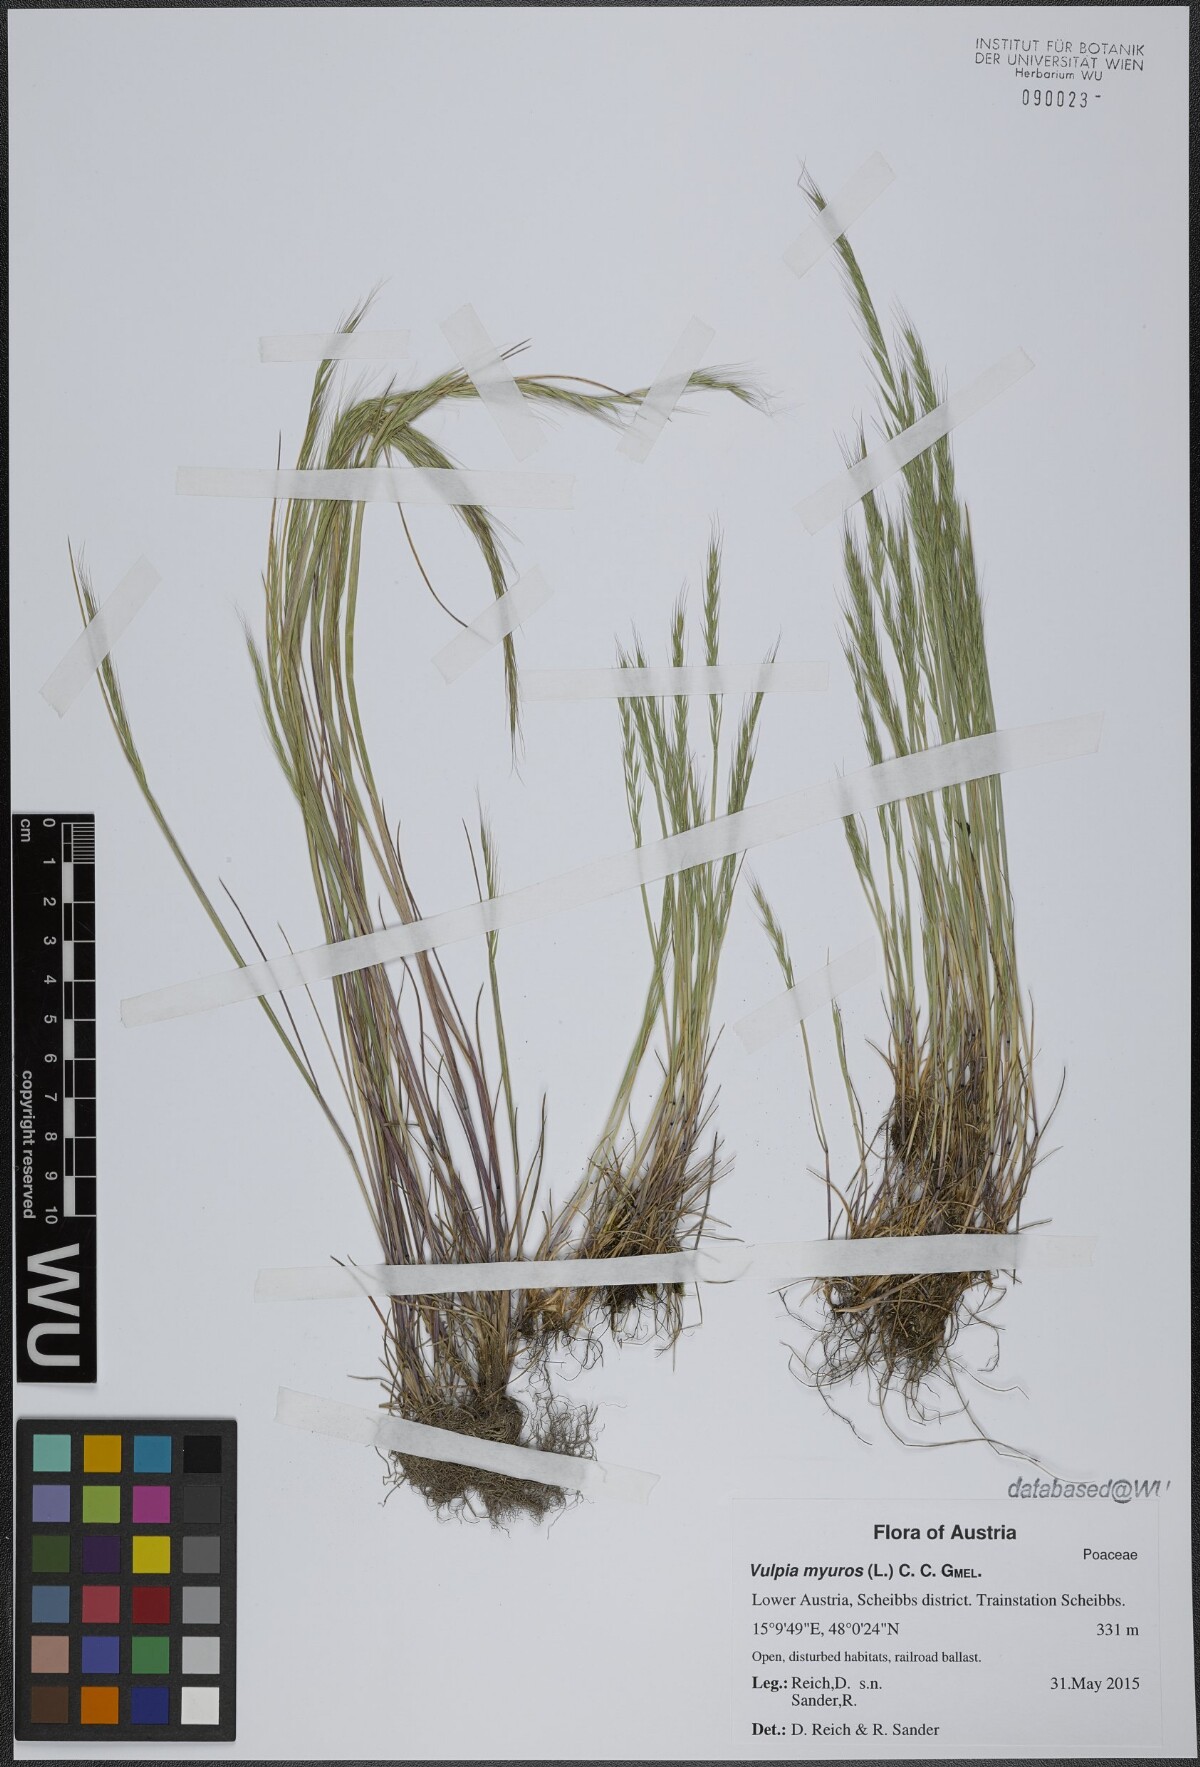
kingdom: Plantae
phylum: Tracheophyta
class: Liliopsida
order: Poales
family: Poaceae
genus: Festuca
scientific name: Festuca myuros
